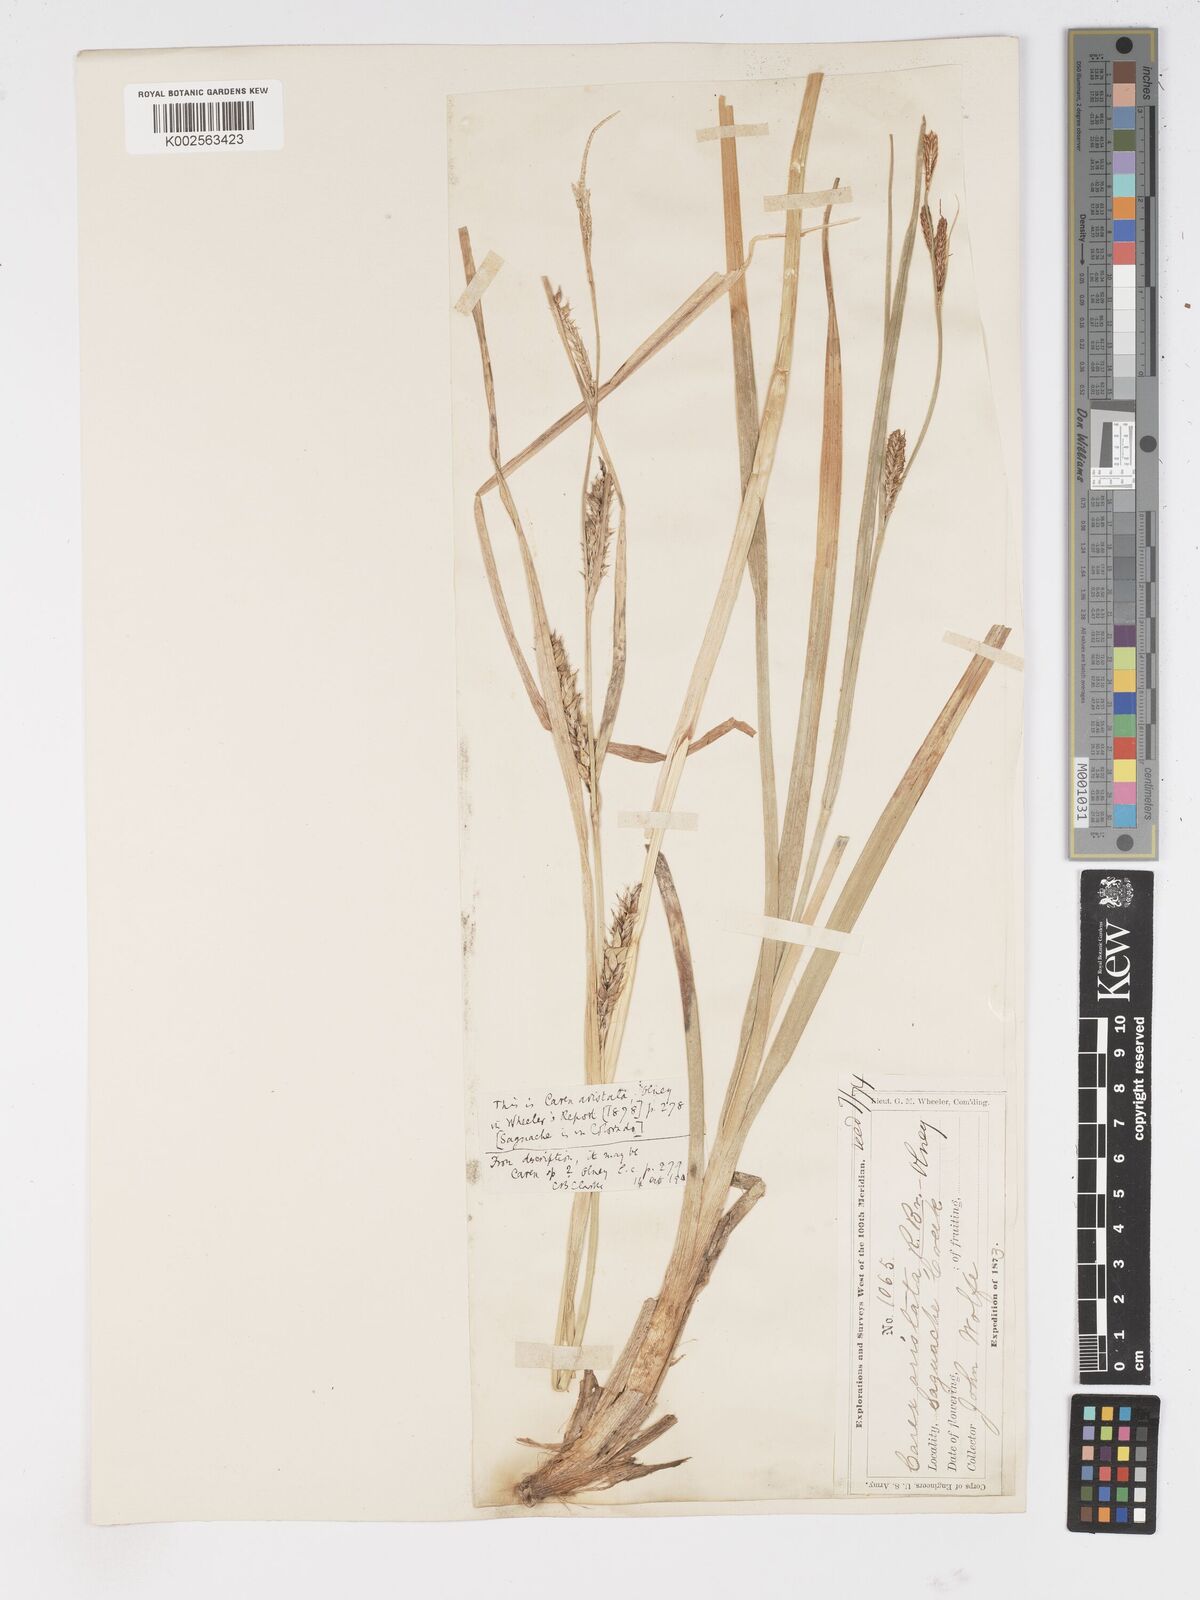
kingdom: Plantae
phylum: Tracheophyta
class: Liliopsida
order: Poales
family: Cyperaceae
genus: Carex
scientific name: Carex atherodes
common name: Wheat sedge
